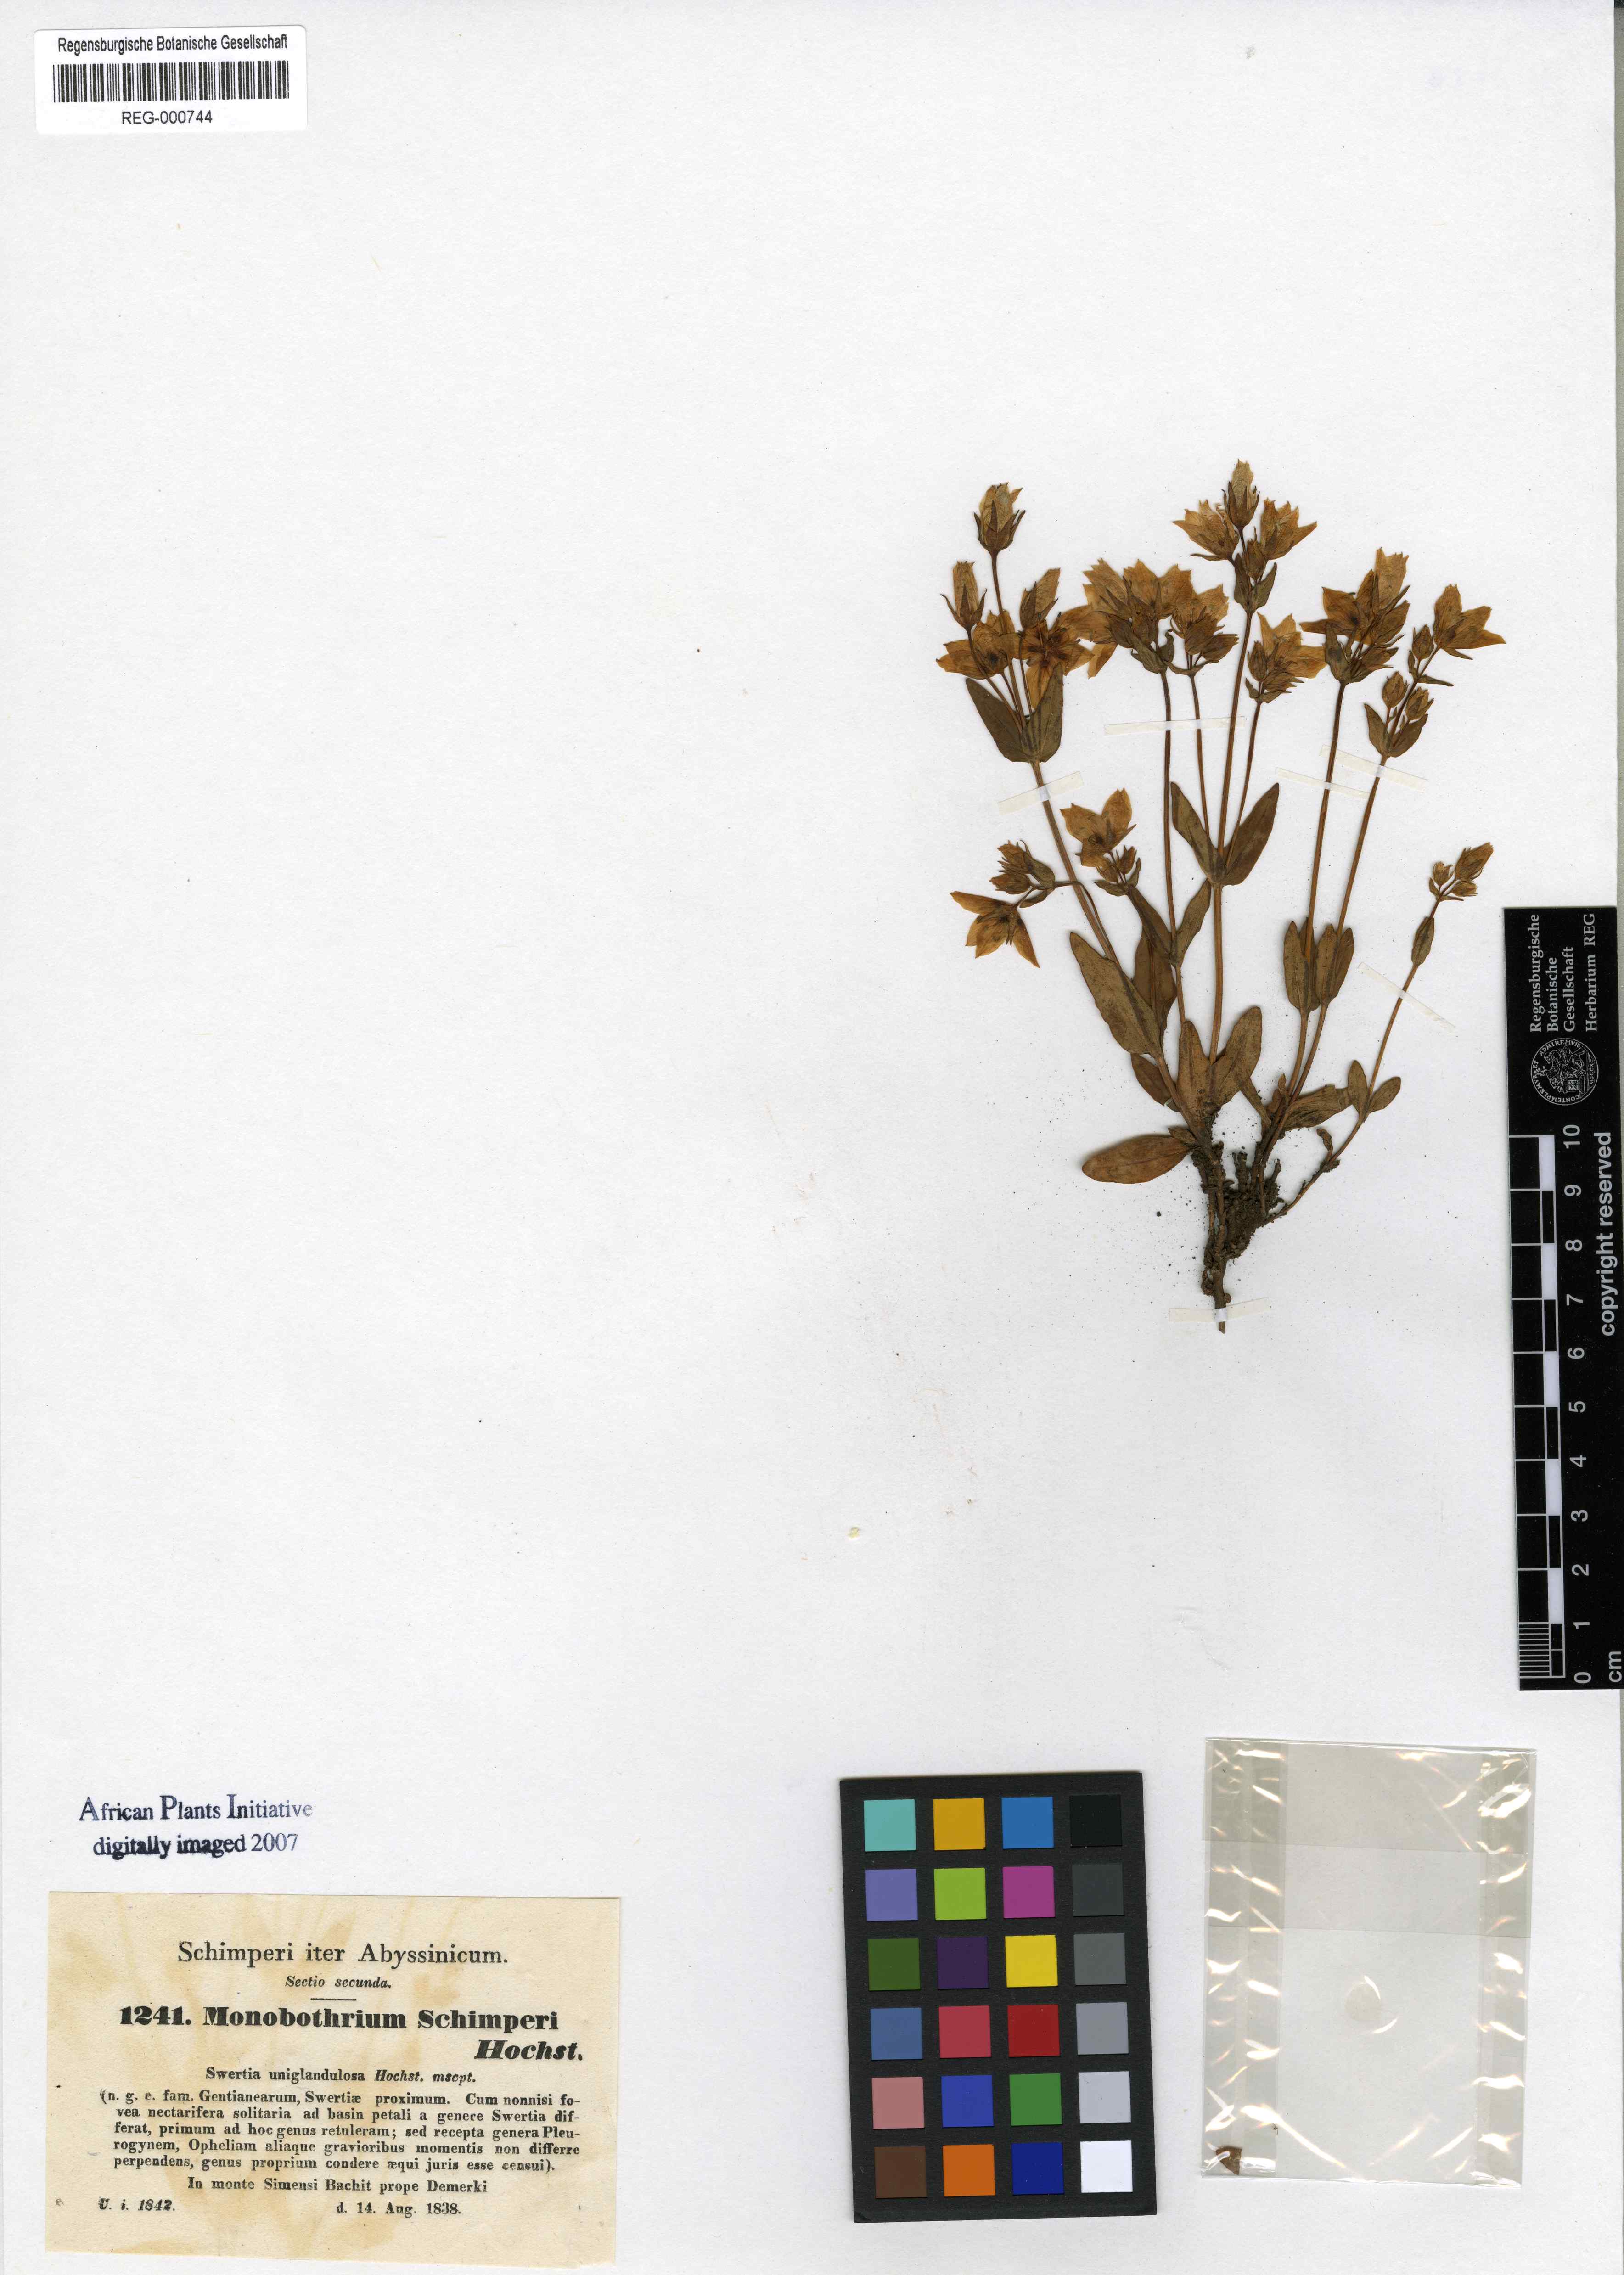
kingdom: Plantae
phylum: Tracheophyta
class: Magnoliopsida
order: Gentianales
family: Gentianaceae
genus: Swertia
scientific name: Swertia schimperi
